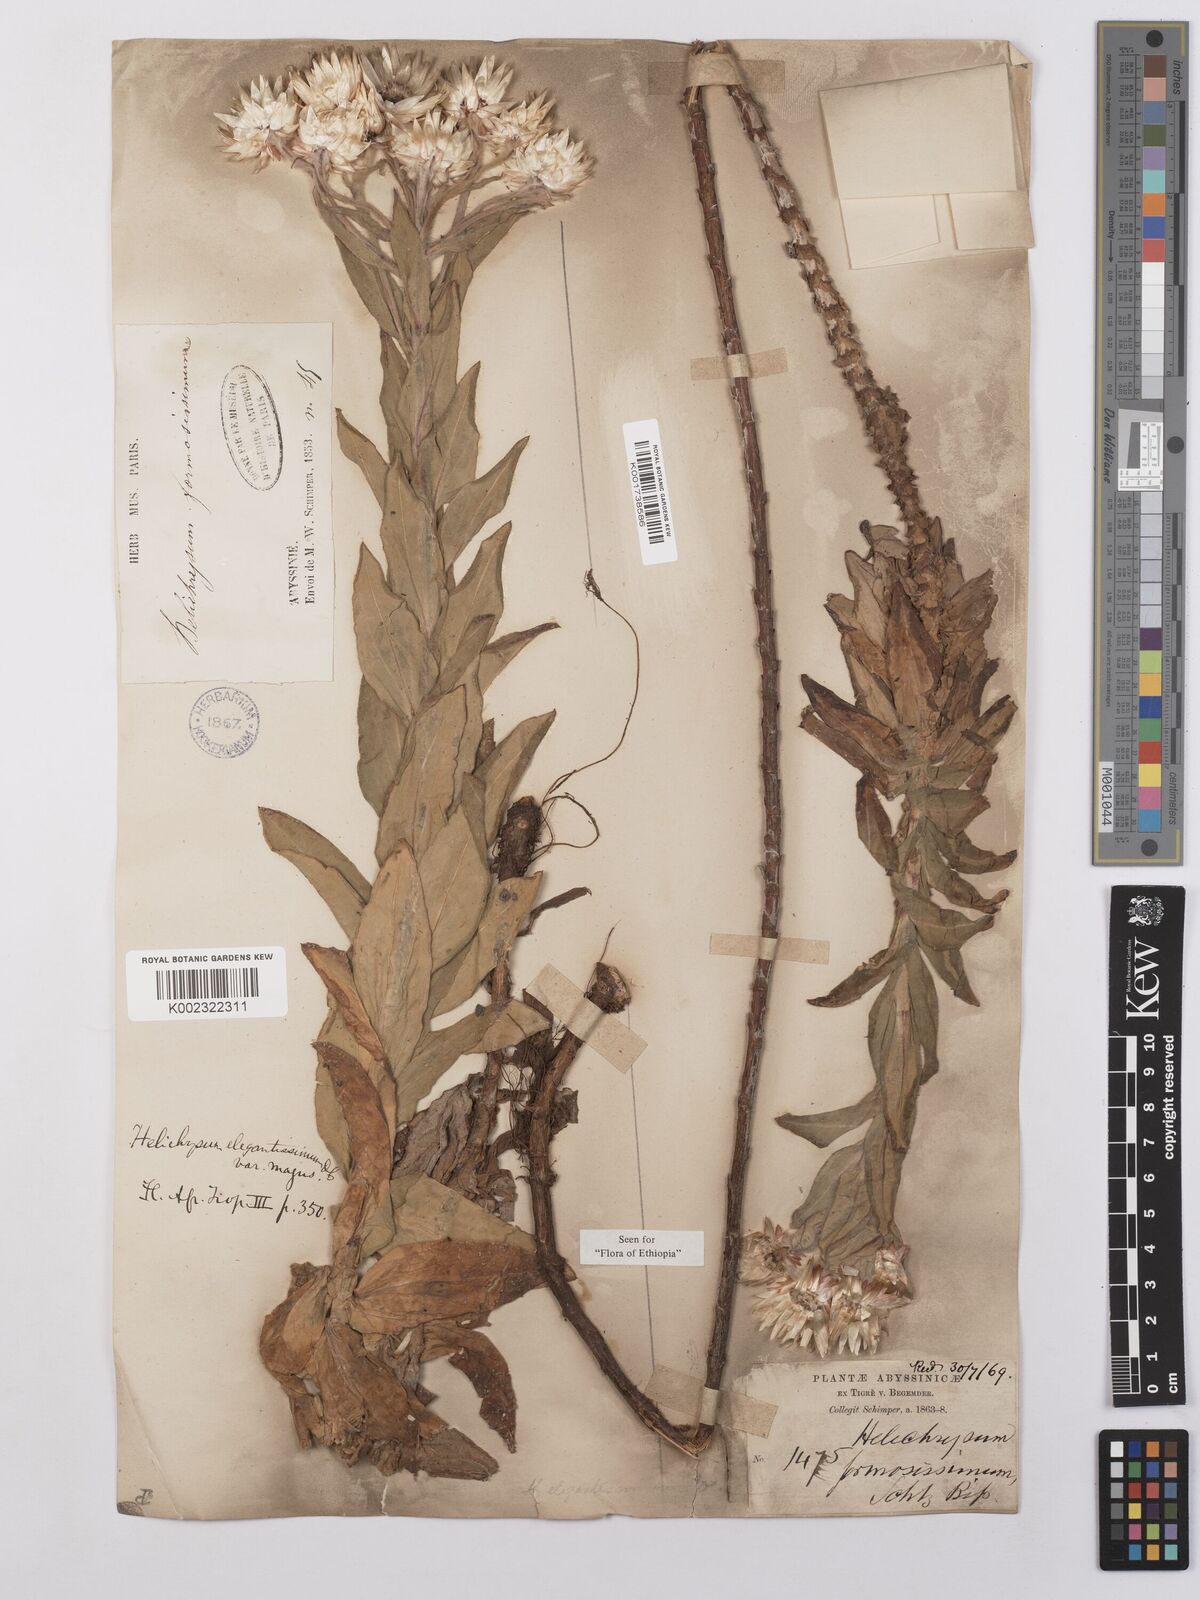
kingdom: Plantae
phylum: Tracheophyta
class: Magnoliopsida
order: Asterales
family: Asteraceae
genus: Helichrysum
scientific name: Helichrysum formosissimum
